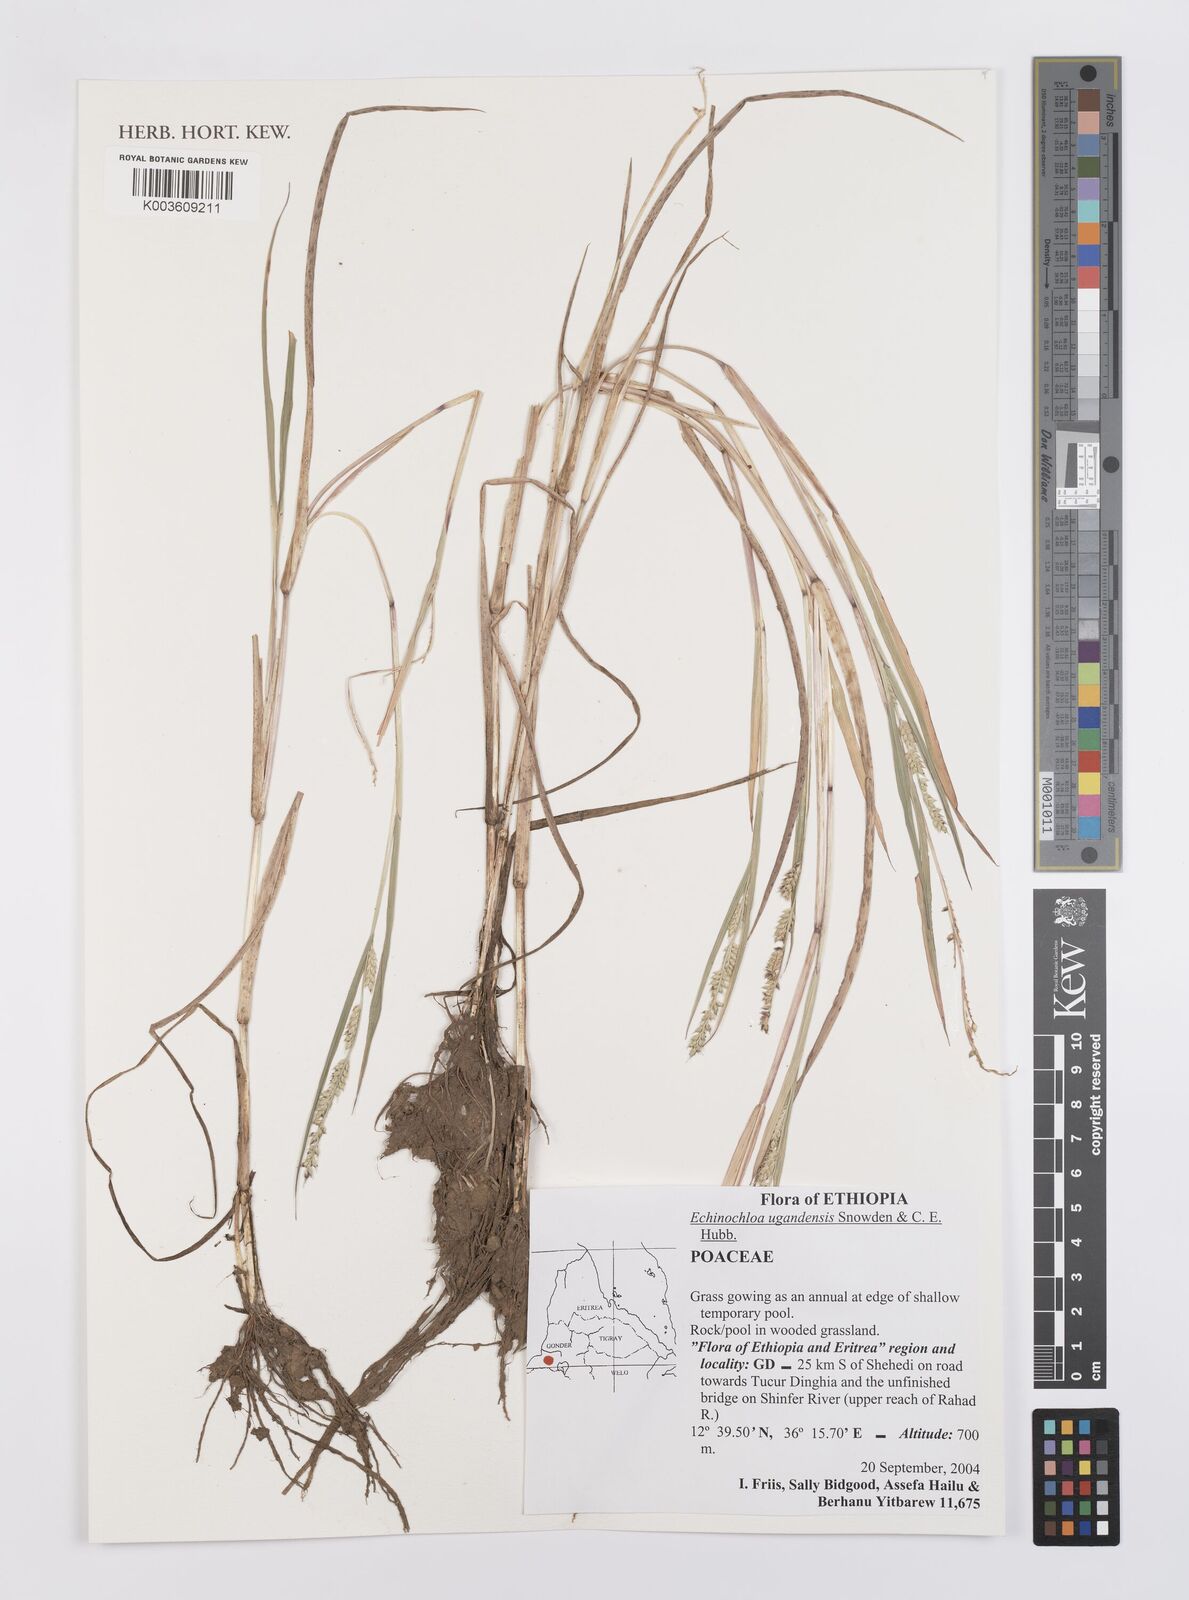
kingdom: Plantae
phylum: Tracheophyta
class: Liliopsida
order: Poales
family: Poaceae
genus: Echinochloa
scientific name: Echinochloa ugandensis
